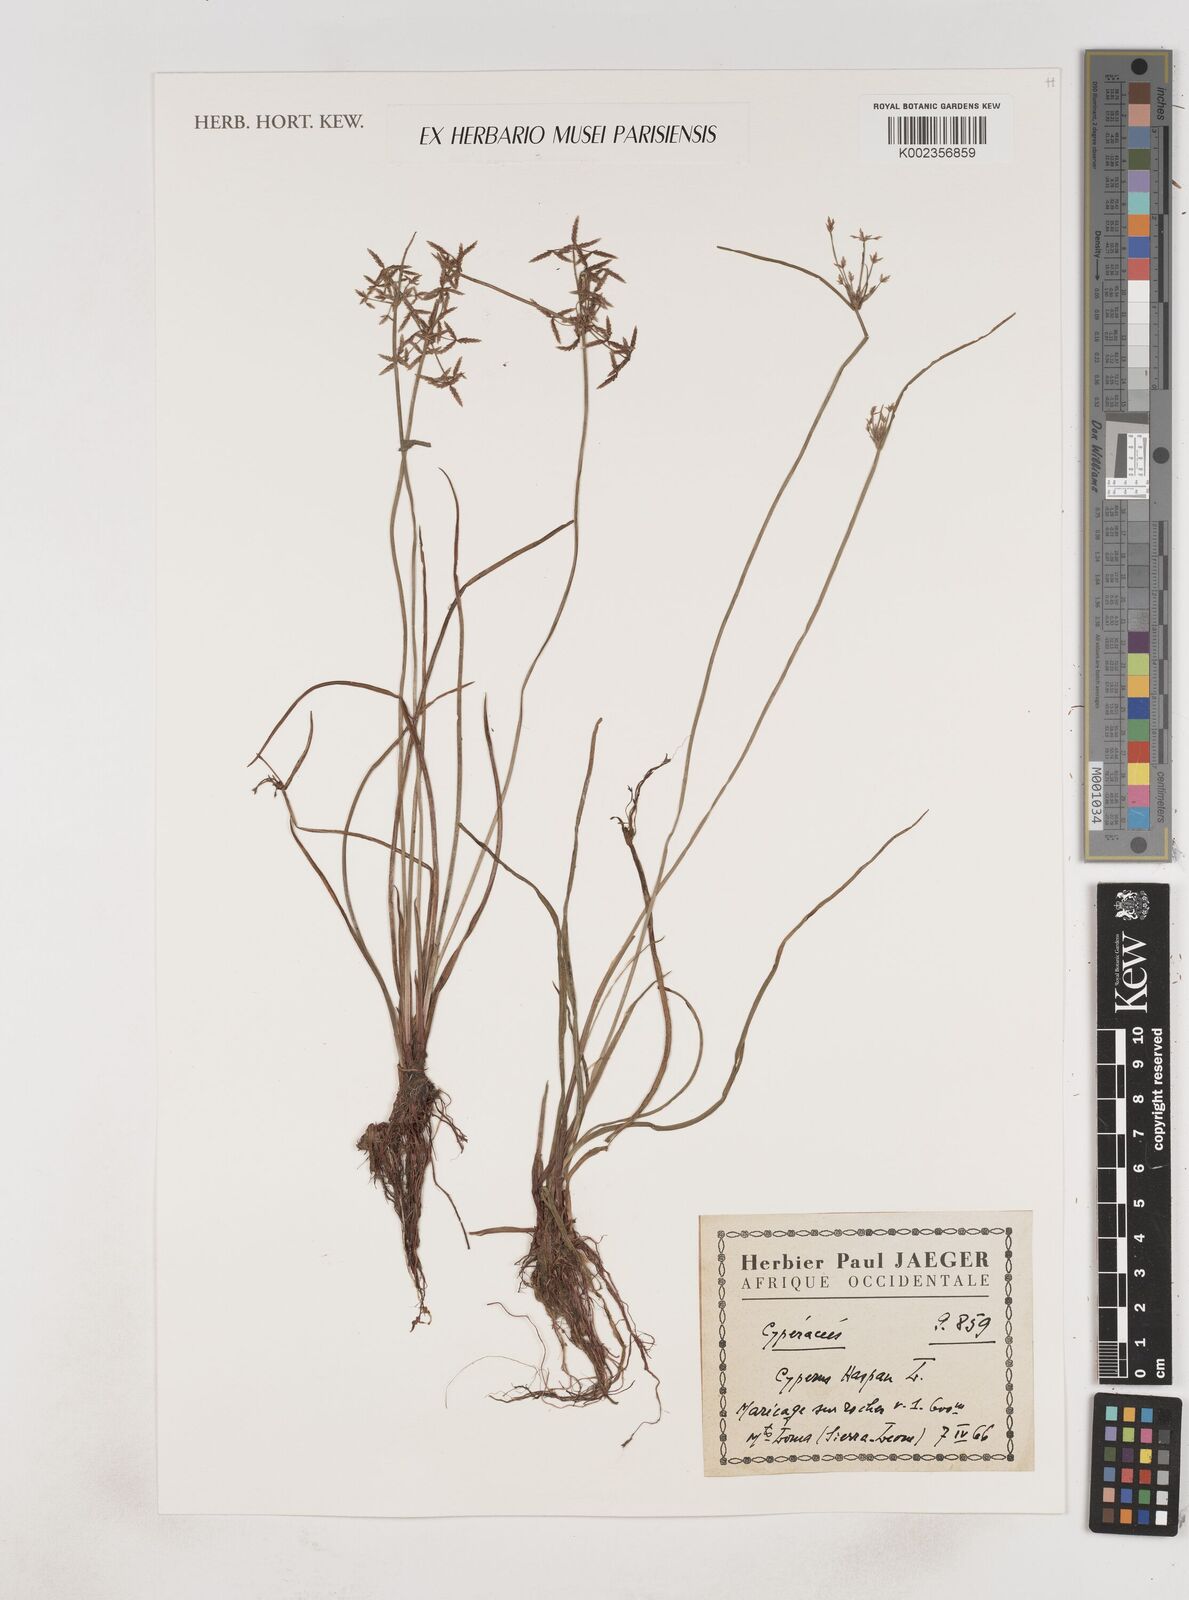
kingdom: Plantae
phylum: Tracheophyta
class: Liliopsida
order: Poales
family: Cyperaceae
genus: Cyperus
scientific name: Cyperus haspan
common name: Haspan flatsedge
